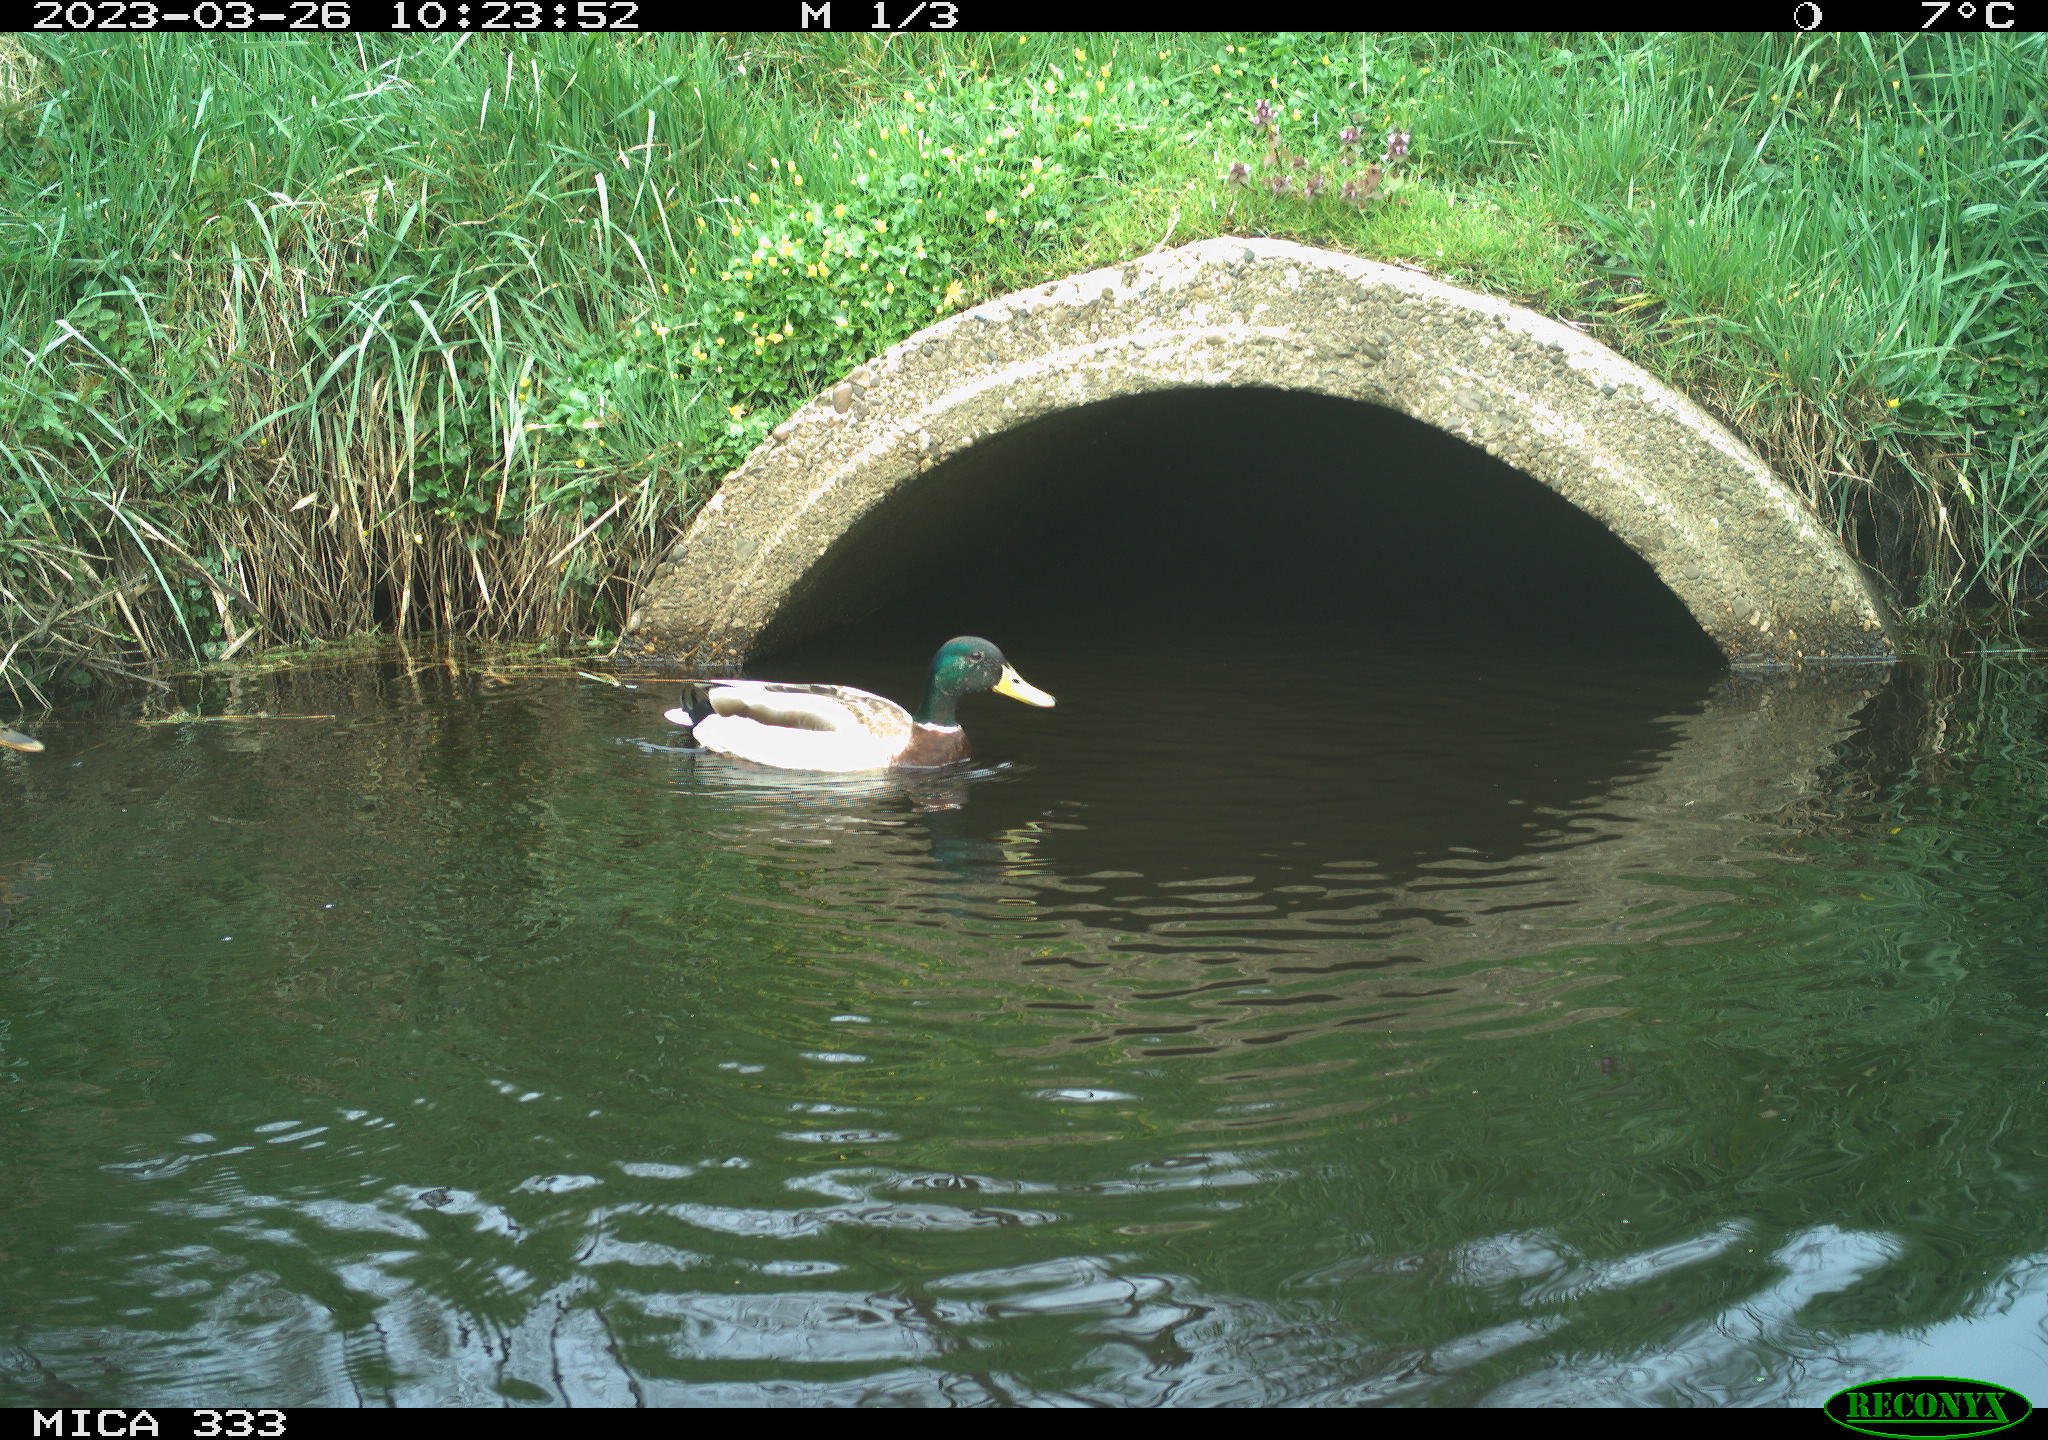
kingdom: Animalia
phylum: Chordata
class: Aves
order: Anseriformes
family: Anatidae
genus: Anas
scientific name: Anas platyrhynchos
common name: Mallard
